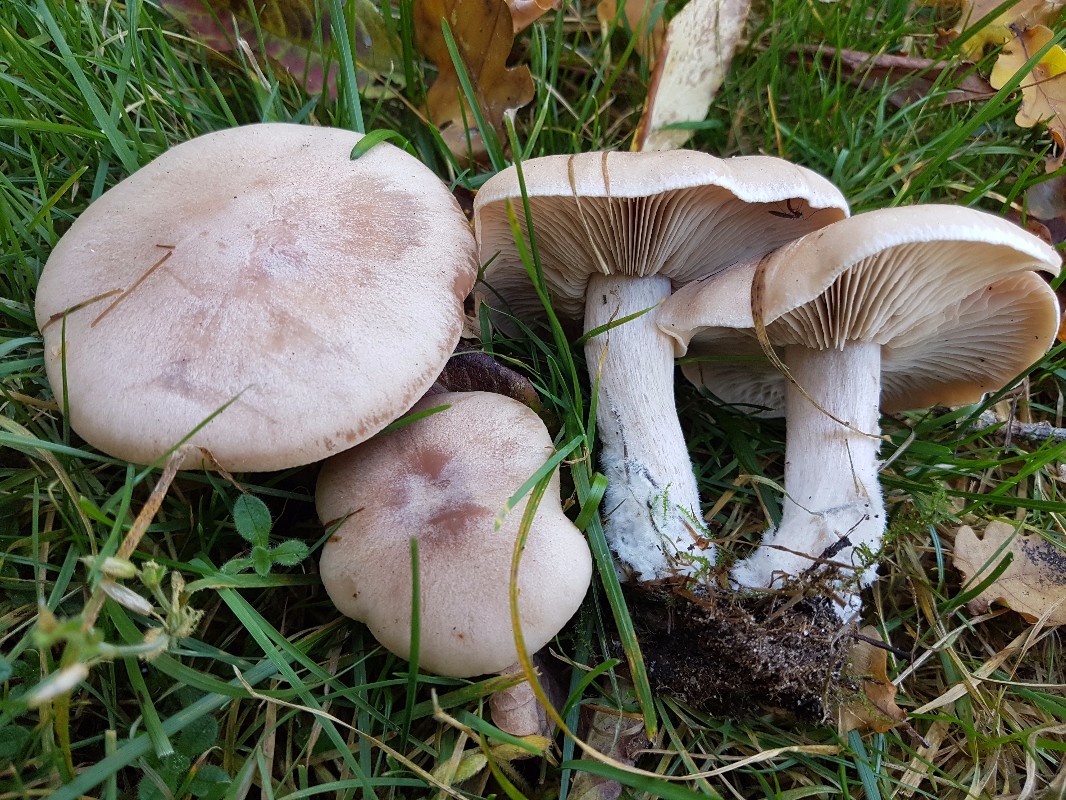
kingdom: Fungi
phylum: Basidiomycota
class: Agaricomycetes
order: Agaricales
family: Tricholomataceae
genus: Lepista
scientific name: Lepista irina
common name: violduftende hekseringshat
